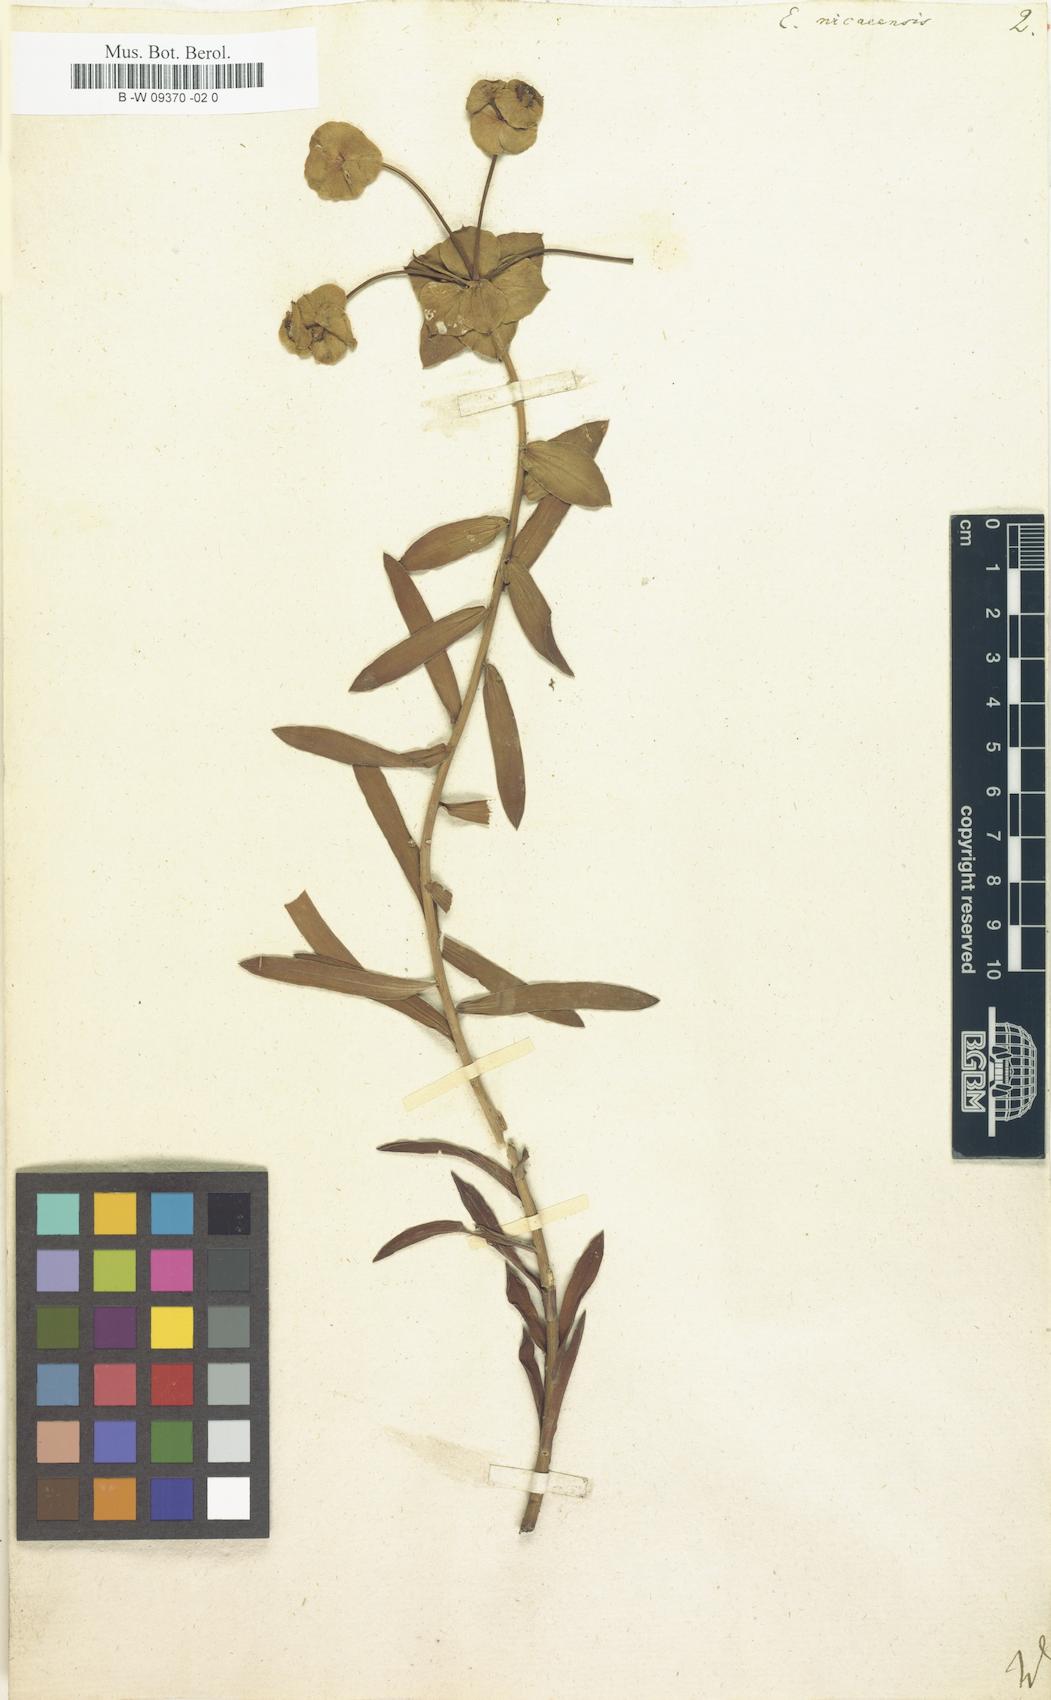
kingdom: Plantae
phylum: Tracheophyta
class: Magnoliopsida
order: Malpighiales
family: Euphorbiaceae
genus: Euphorbia
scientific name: Euphorbia nicaeensis
